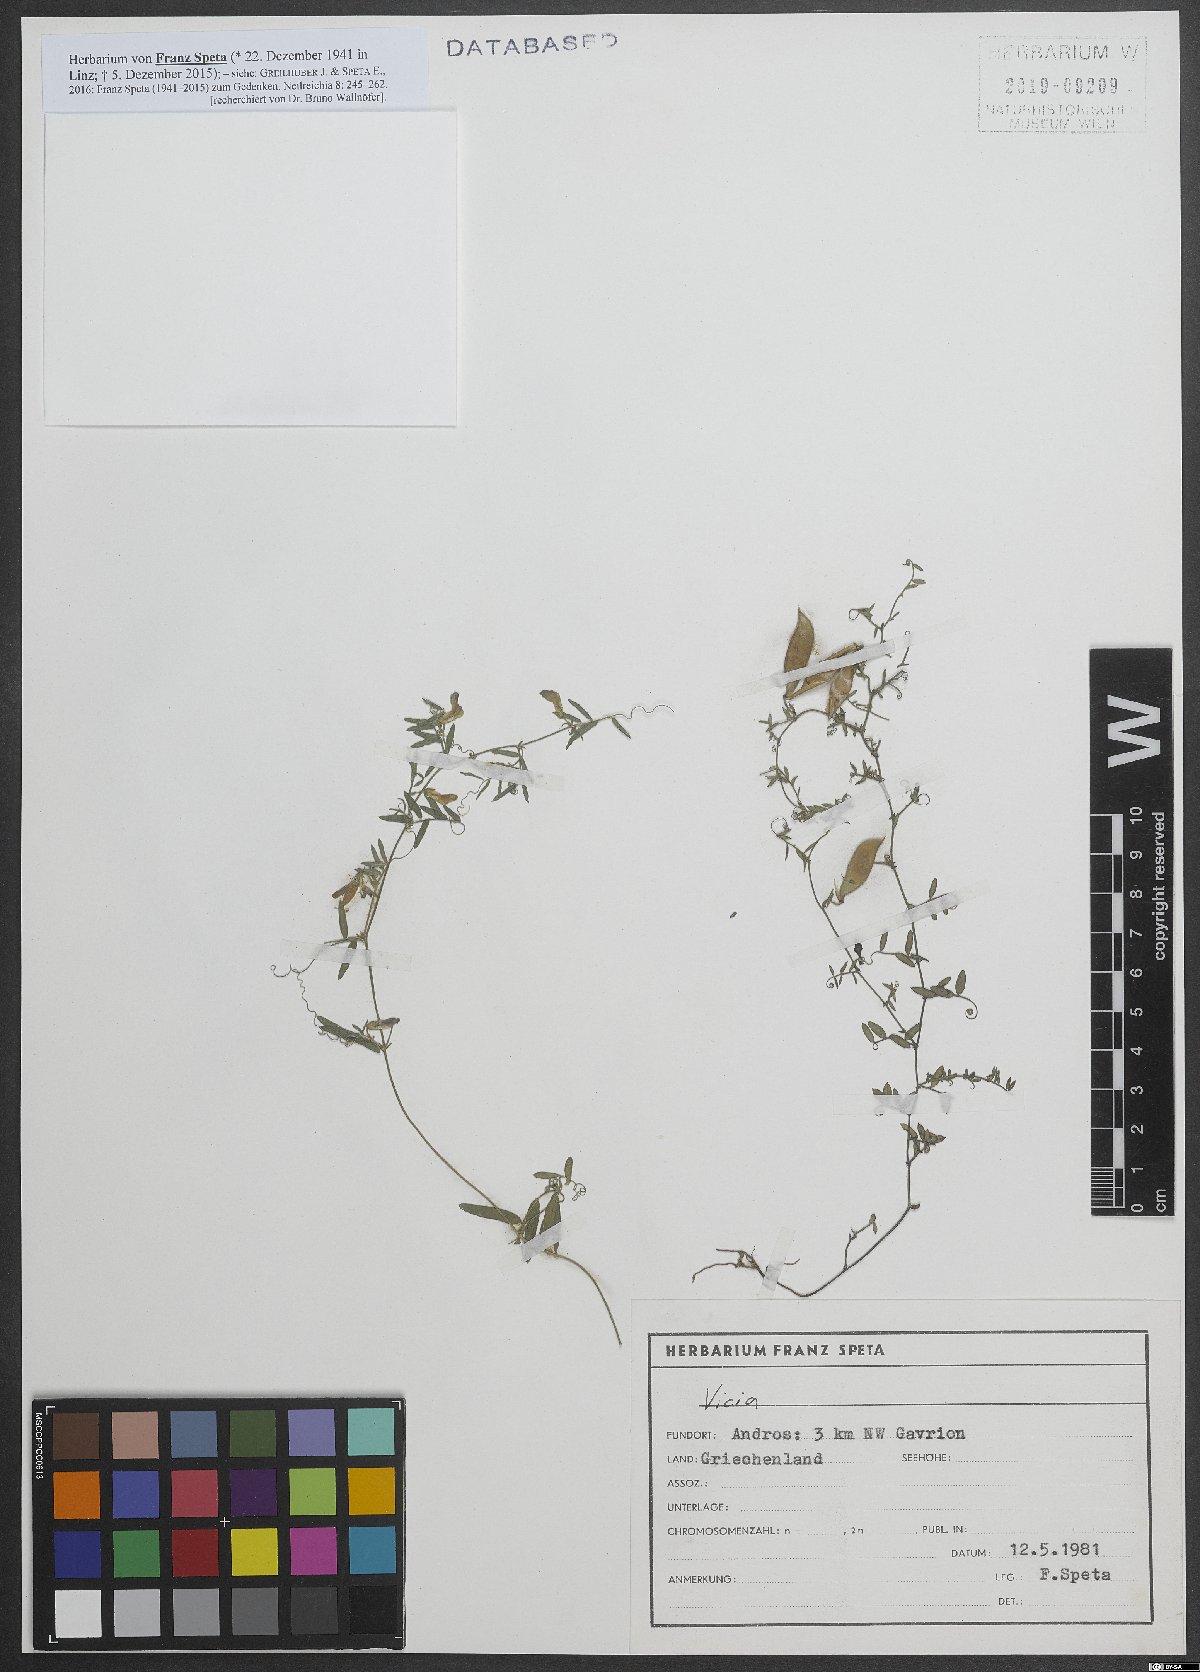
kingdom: Plantae
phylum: Tracheophyta
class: Magnoliopsida
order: Fabales
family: Fabaceae
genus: Vicia
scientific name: Vicia
